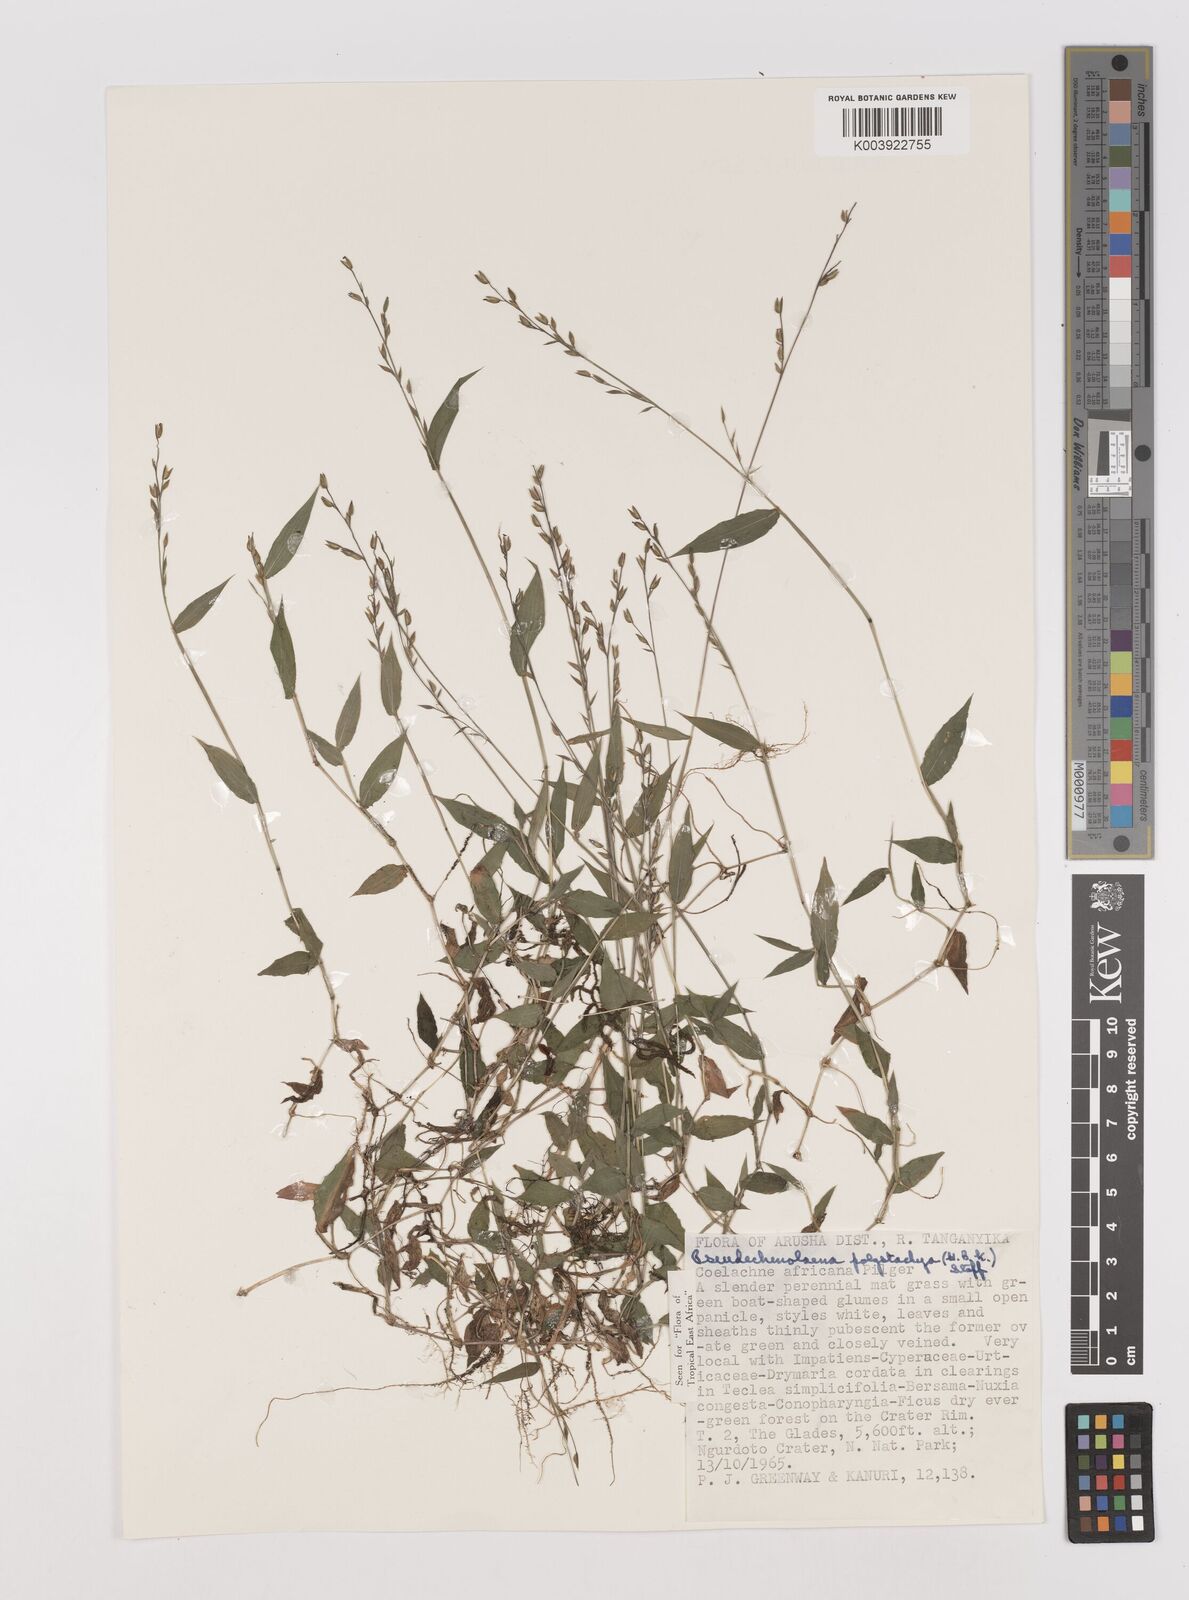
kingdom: Plantae
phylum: Tracheophyta
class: Liliopsida
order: Poales
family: Poaceae
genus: Pseudechinolaena
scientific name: Pseudechinolaena polystachya
